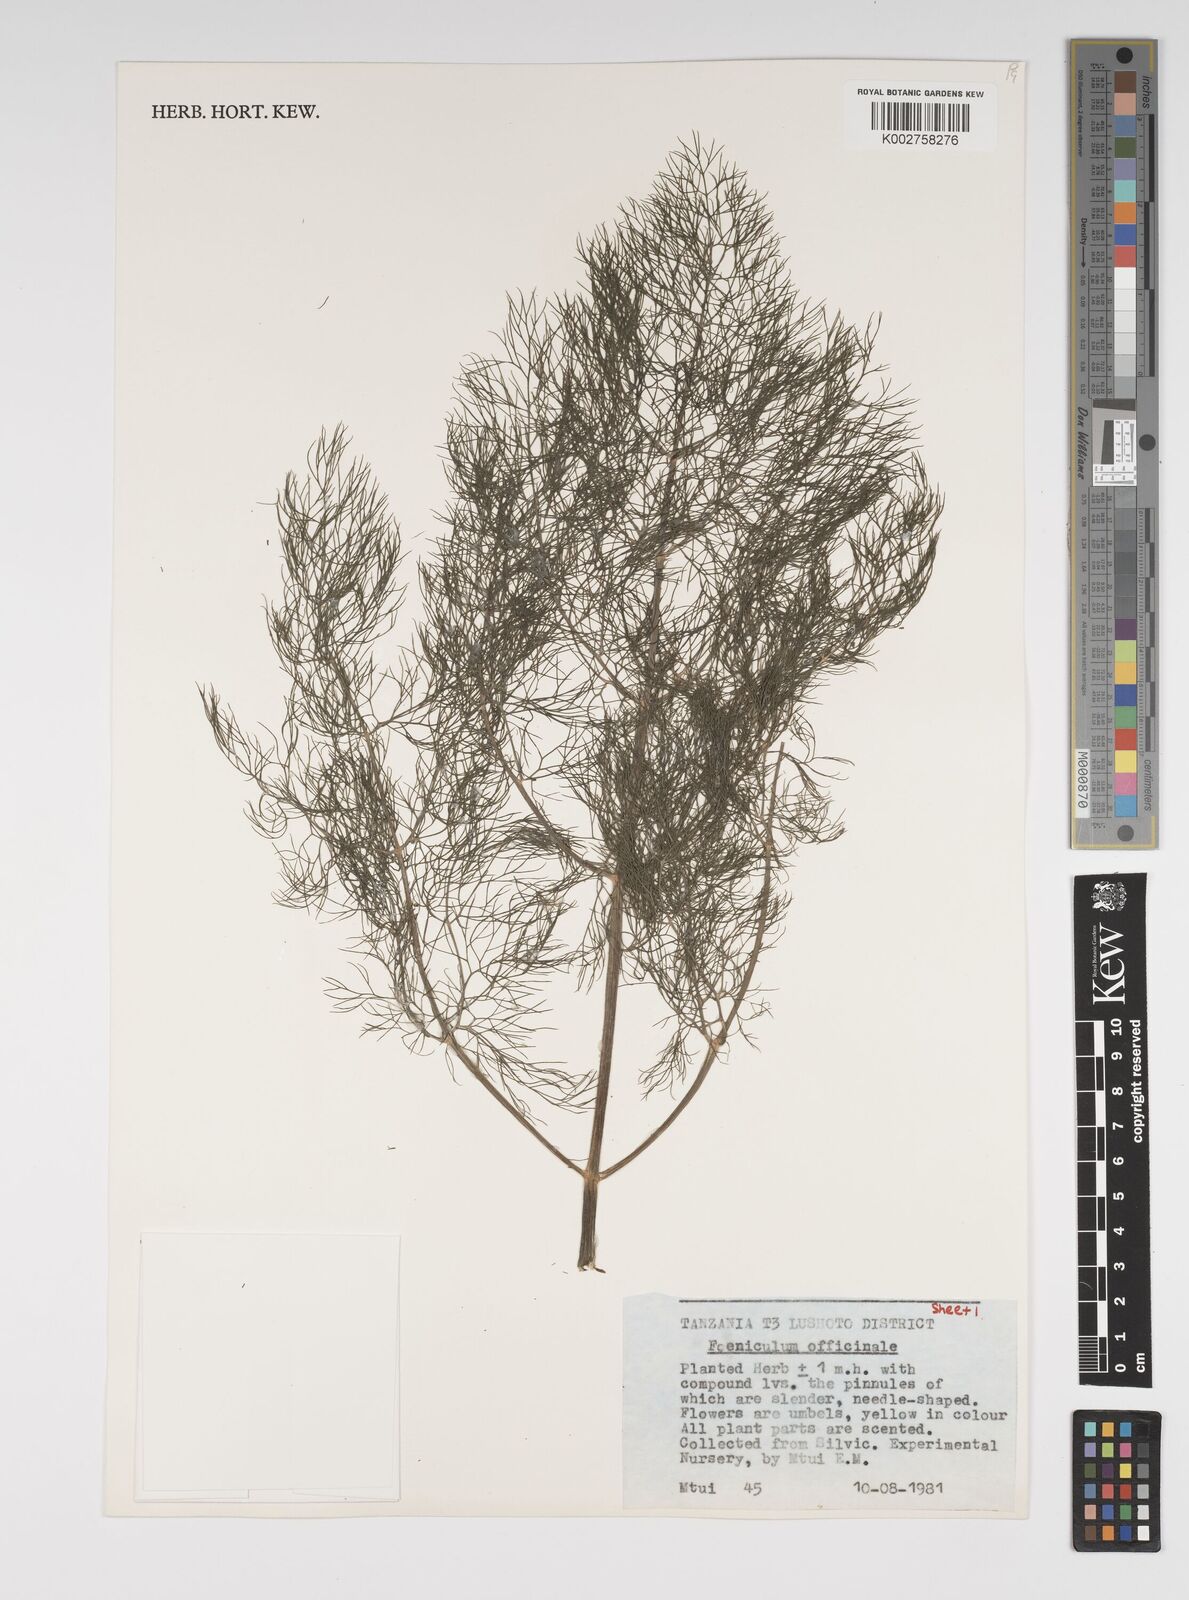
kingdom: Plantae
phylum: Tracheophyta
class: Magnoliopsida
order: Apiales
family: Apiaceae
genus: Foeniculum
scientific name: Foeniculum vulgare
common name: Fennel
